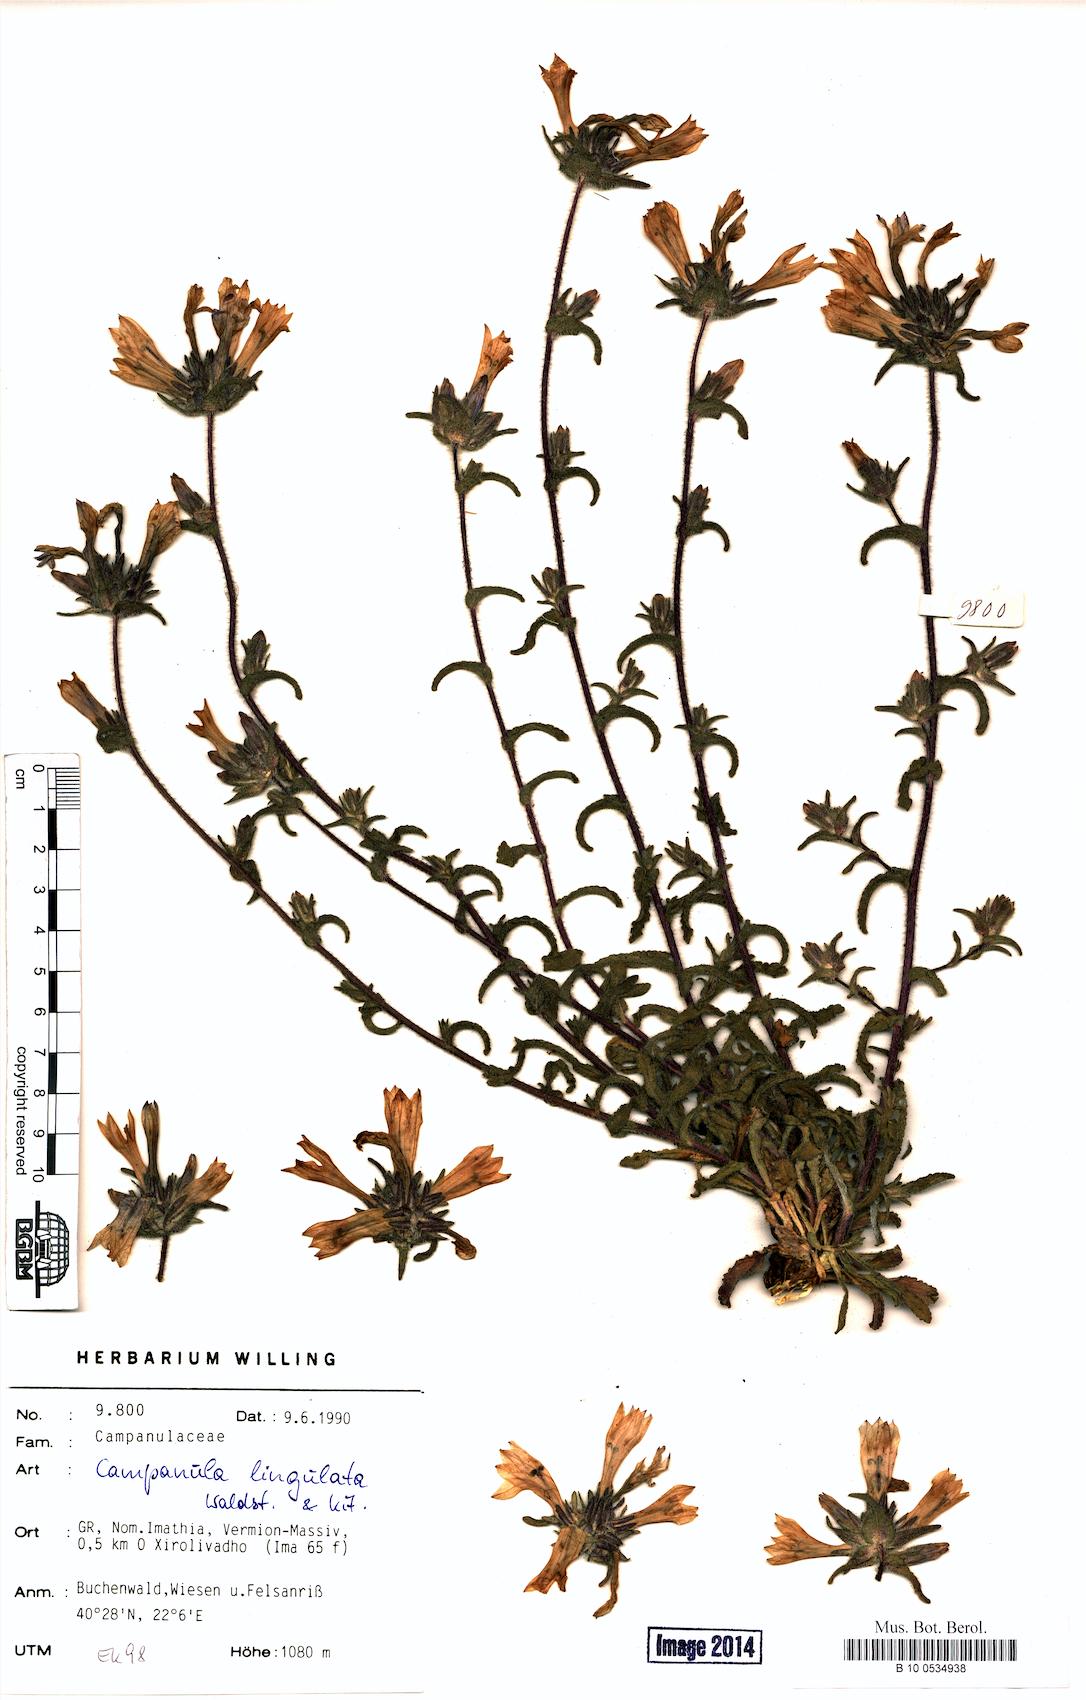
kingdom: Plantae
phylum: Tracheophyta
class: Magnoliopsida
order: Asterales
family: Campanulaceae
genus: Campanula
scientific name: Campanula lingulata
